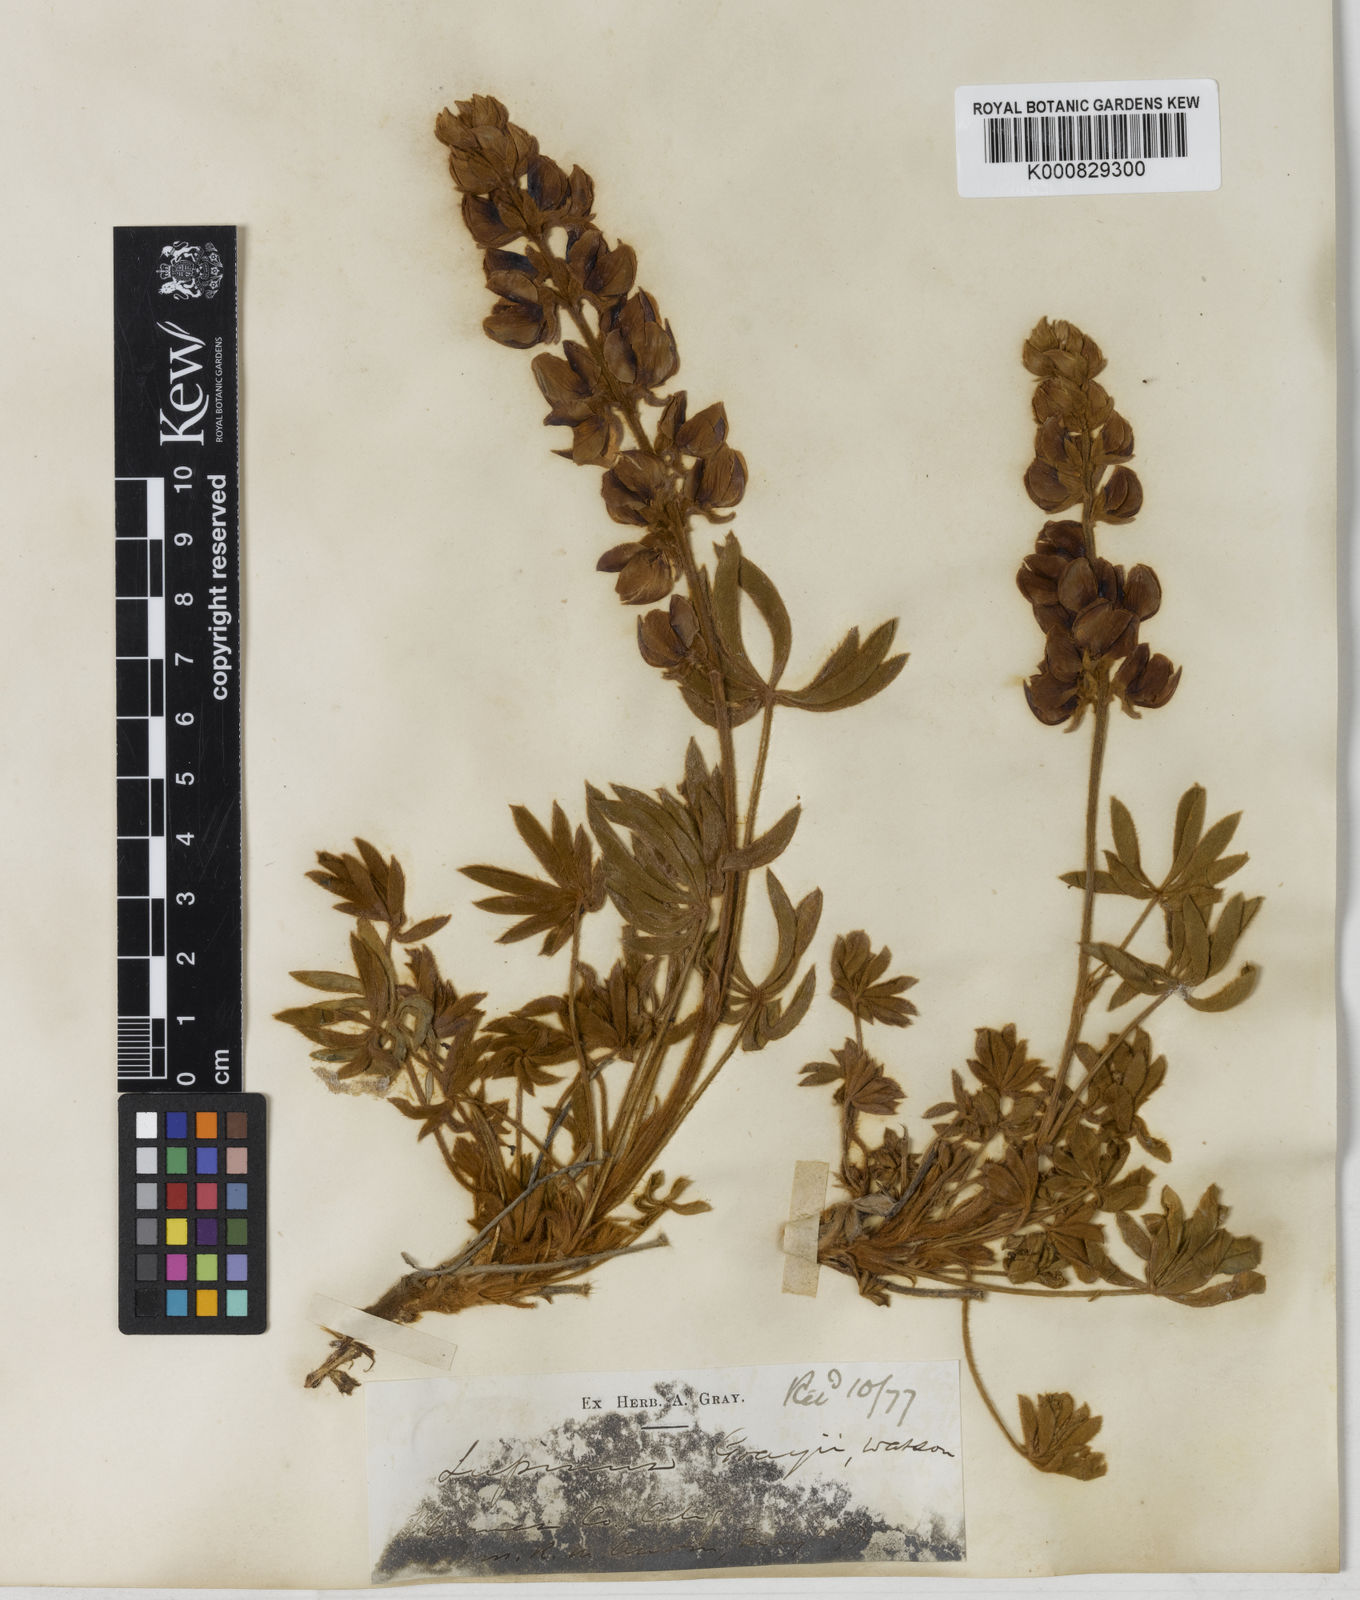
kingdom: Plantae
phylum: Tracheophyta
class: Magnoliopsida
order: Fabales
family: Fabaceae
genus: Lupinus
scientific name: Lupinus grayi
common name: Sierra lupine
